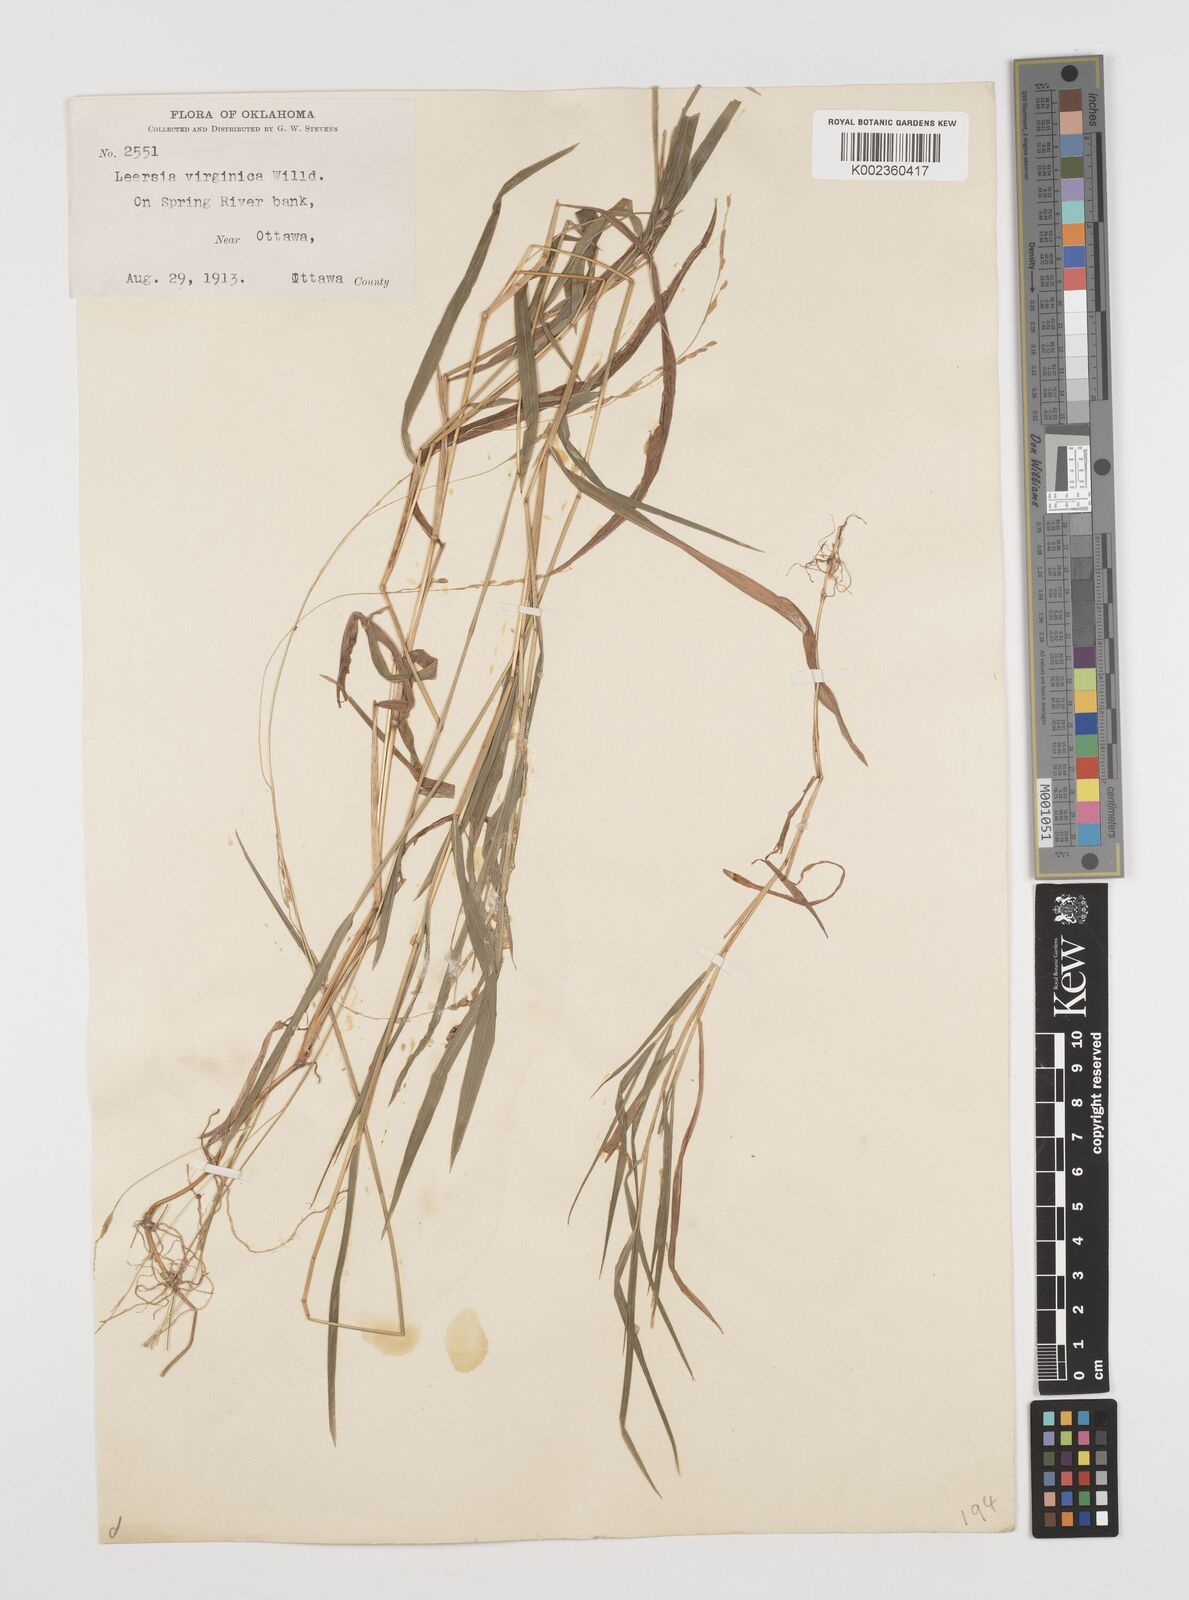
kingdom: Plantae
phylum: Tracheophyta
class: Liliopsida
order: Poales
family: Poaceae
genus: Leersia
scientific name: Leersia virginica
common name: White cutgrass
